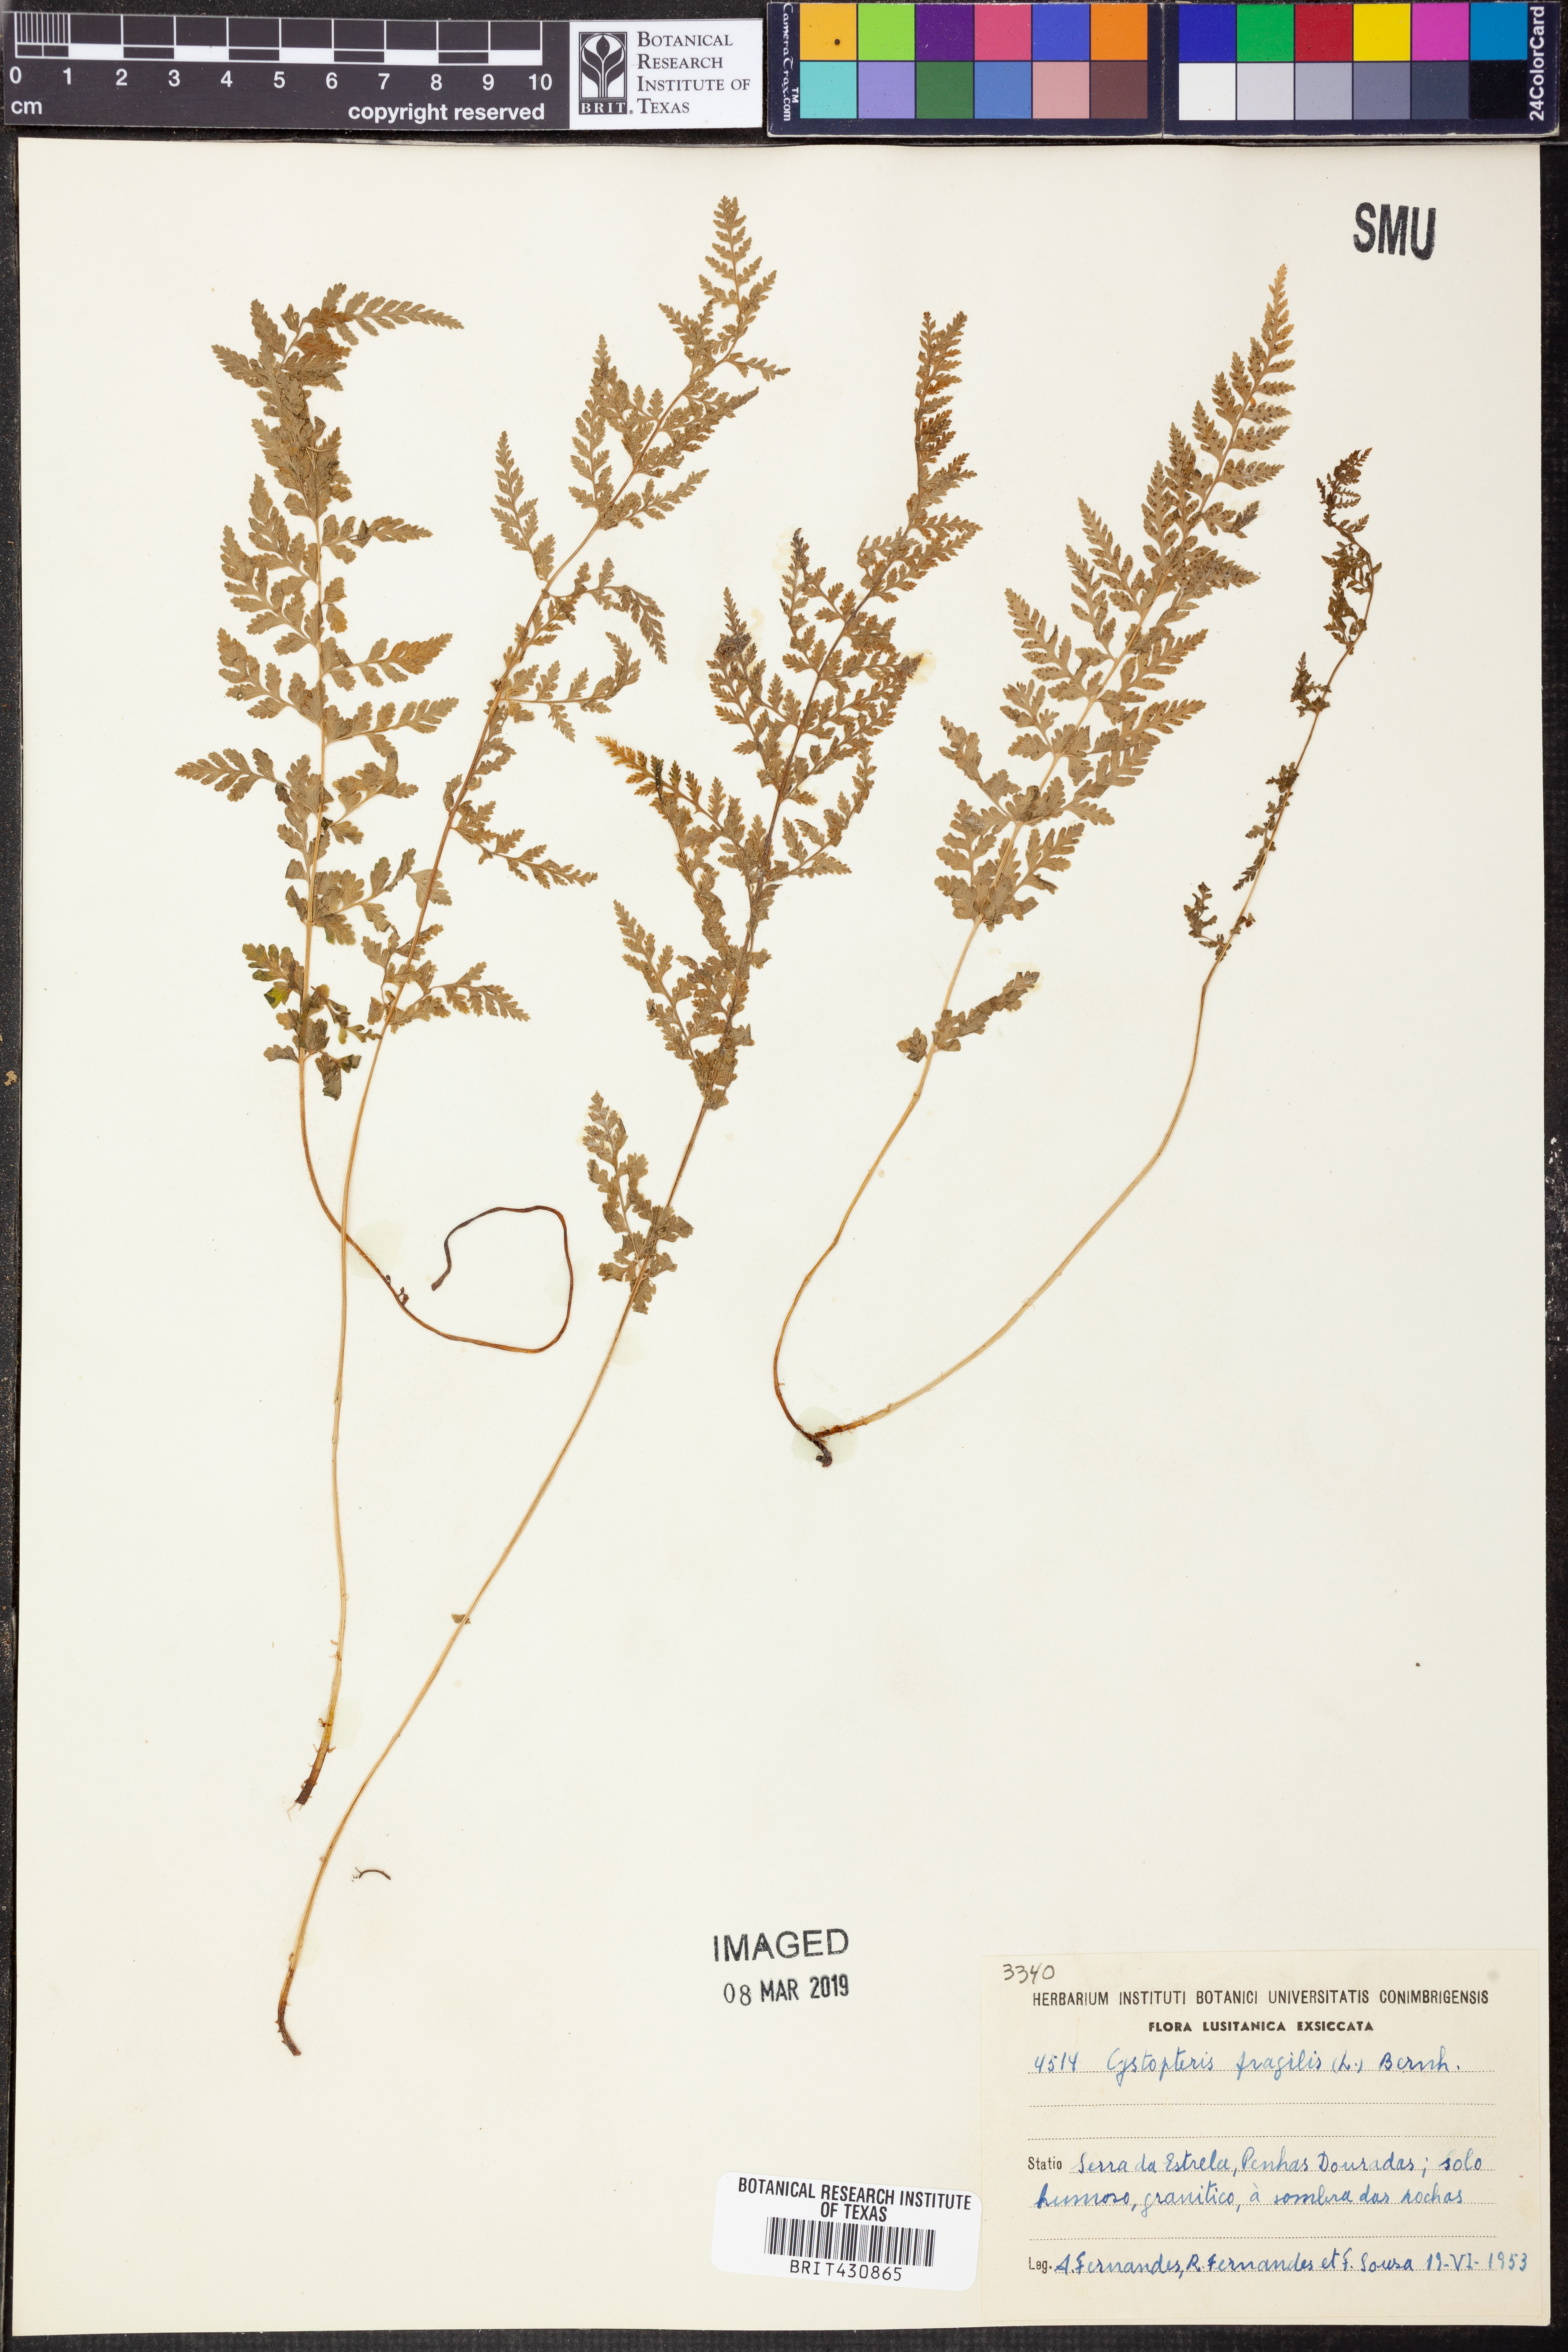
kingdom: Plantae
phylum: Tracheophyta
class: Polypodiopsida
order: Polypodiales
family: Cystopteridaceae
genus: Cystopteris
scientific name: Cystopteris fragilis
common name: Brittle bladder fern
